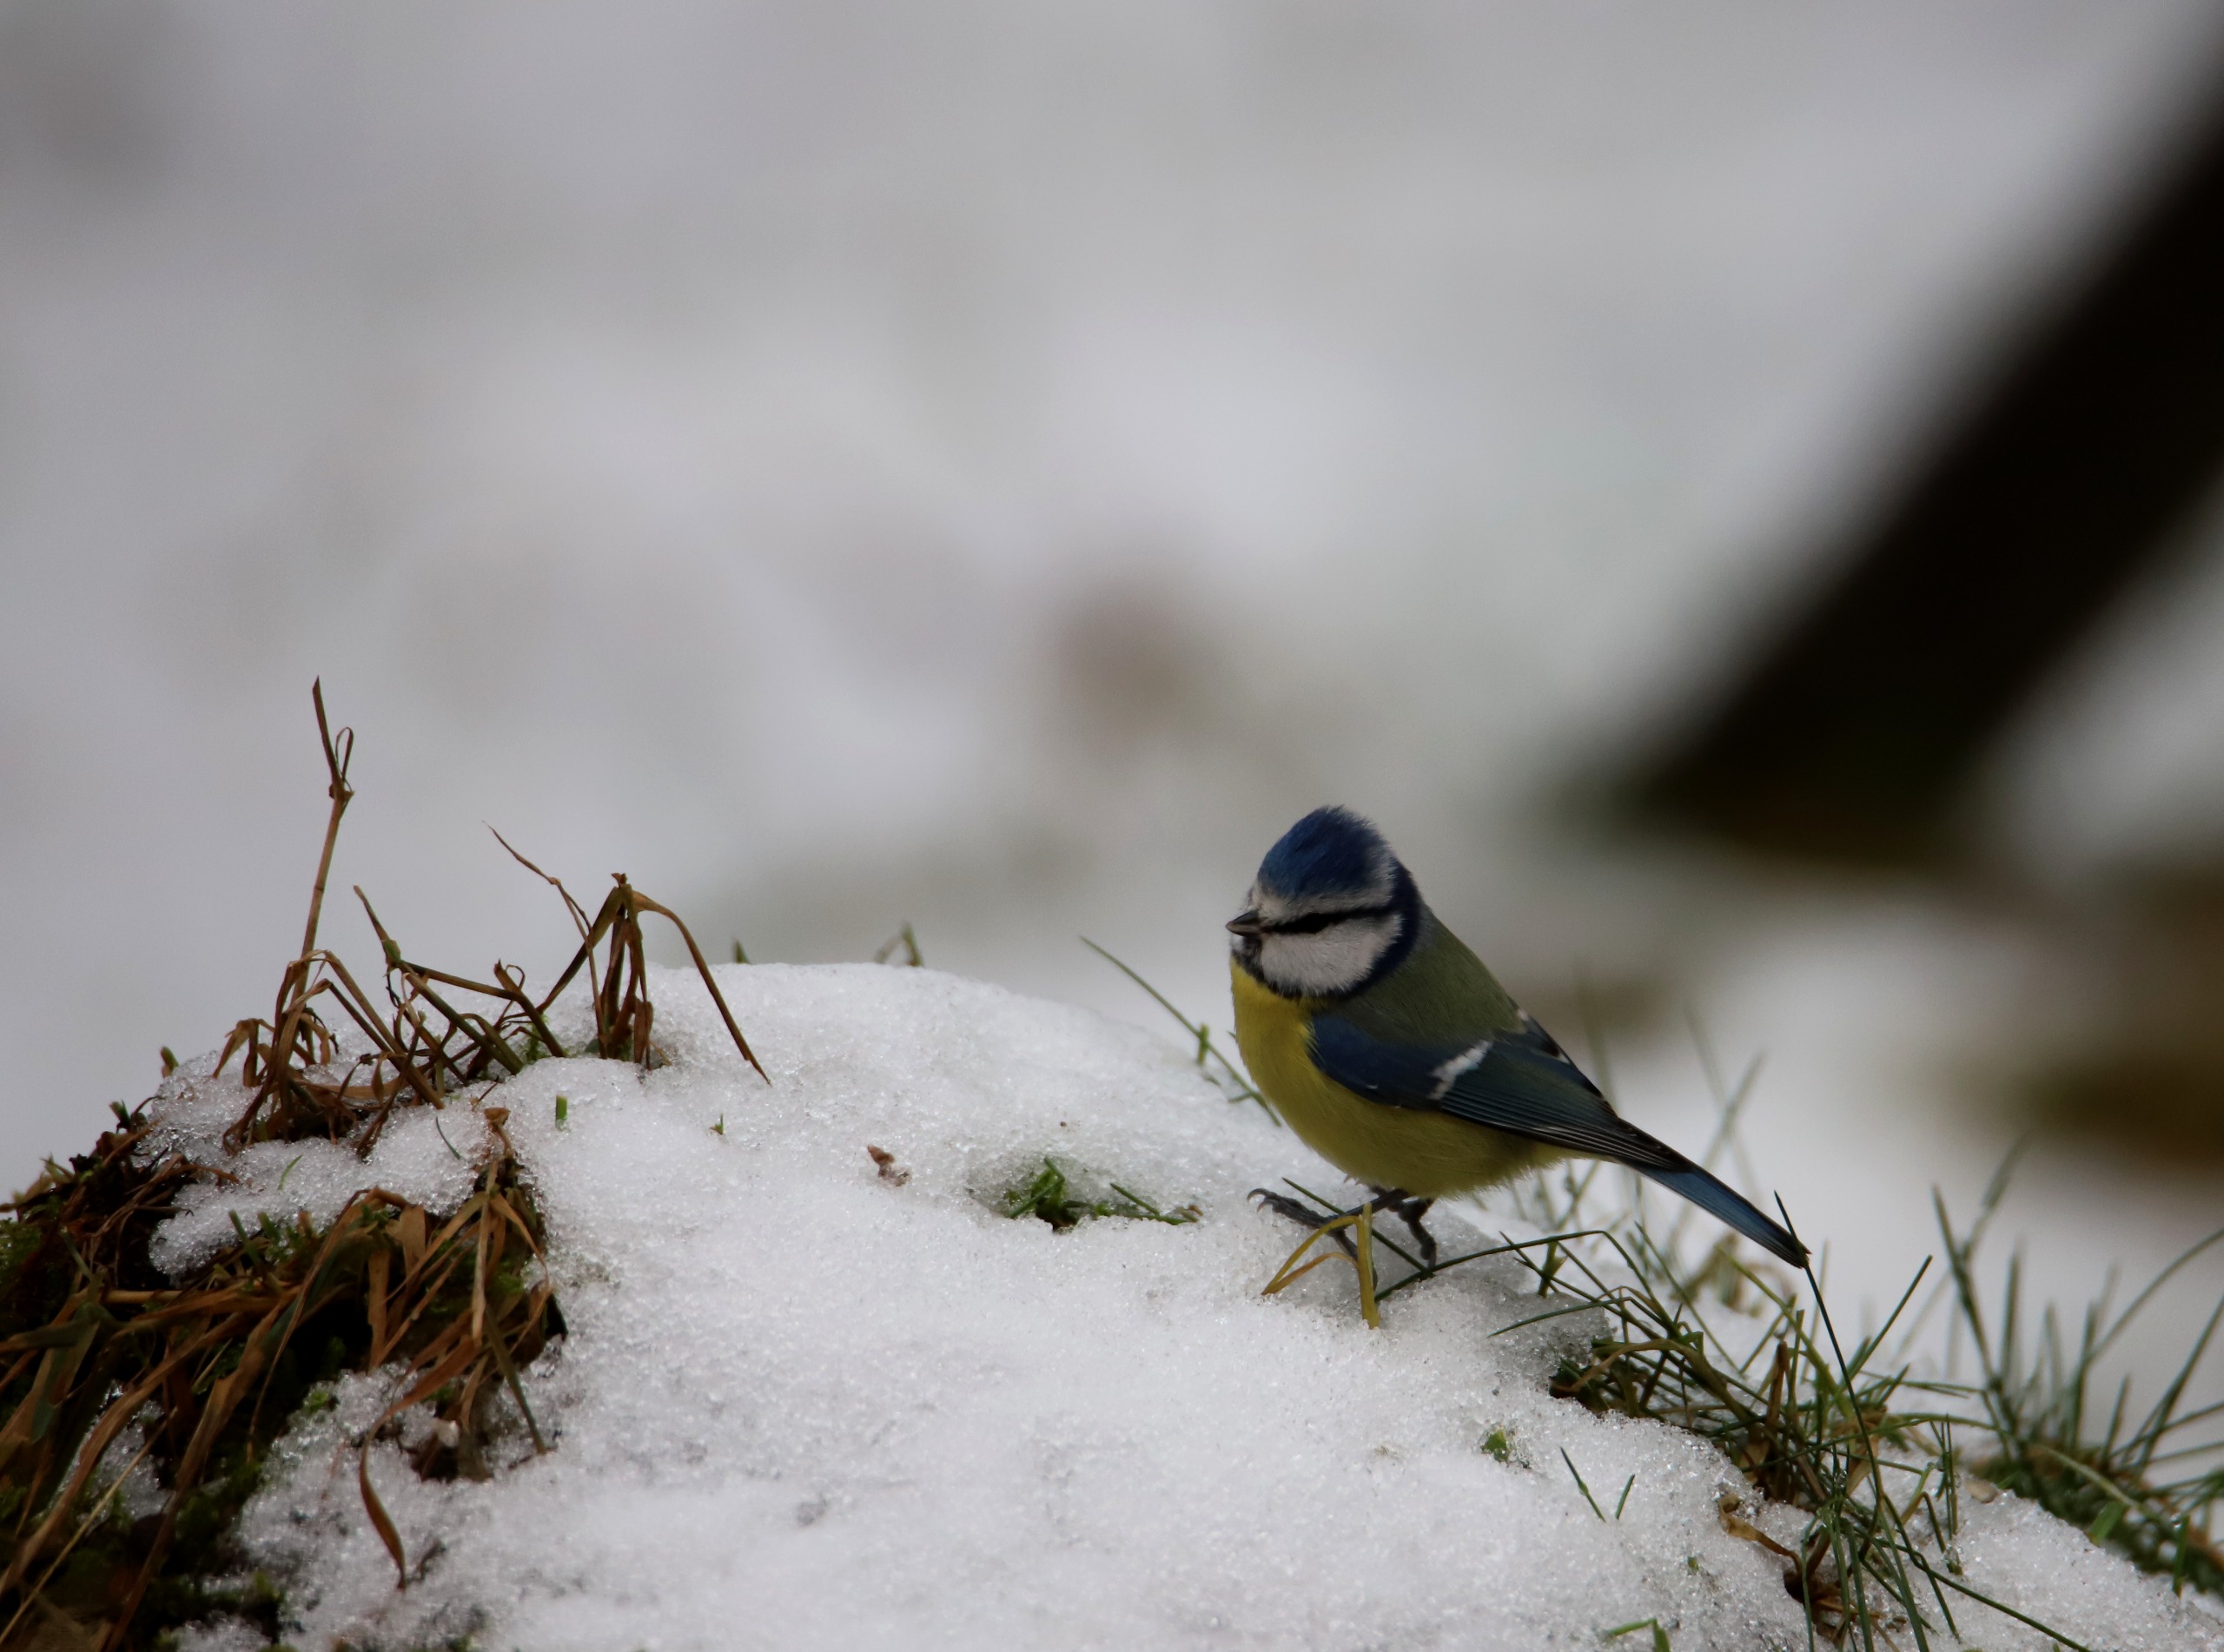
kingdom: Animalia
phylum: Chordata
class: Aves
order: Passeriformes
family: Paridae
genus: Cyanistes
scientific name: Cyanistes caeruleus
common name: Blåmejse
